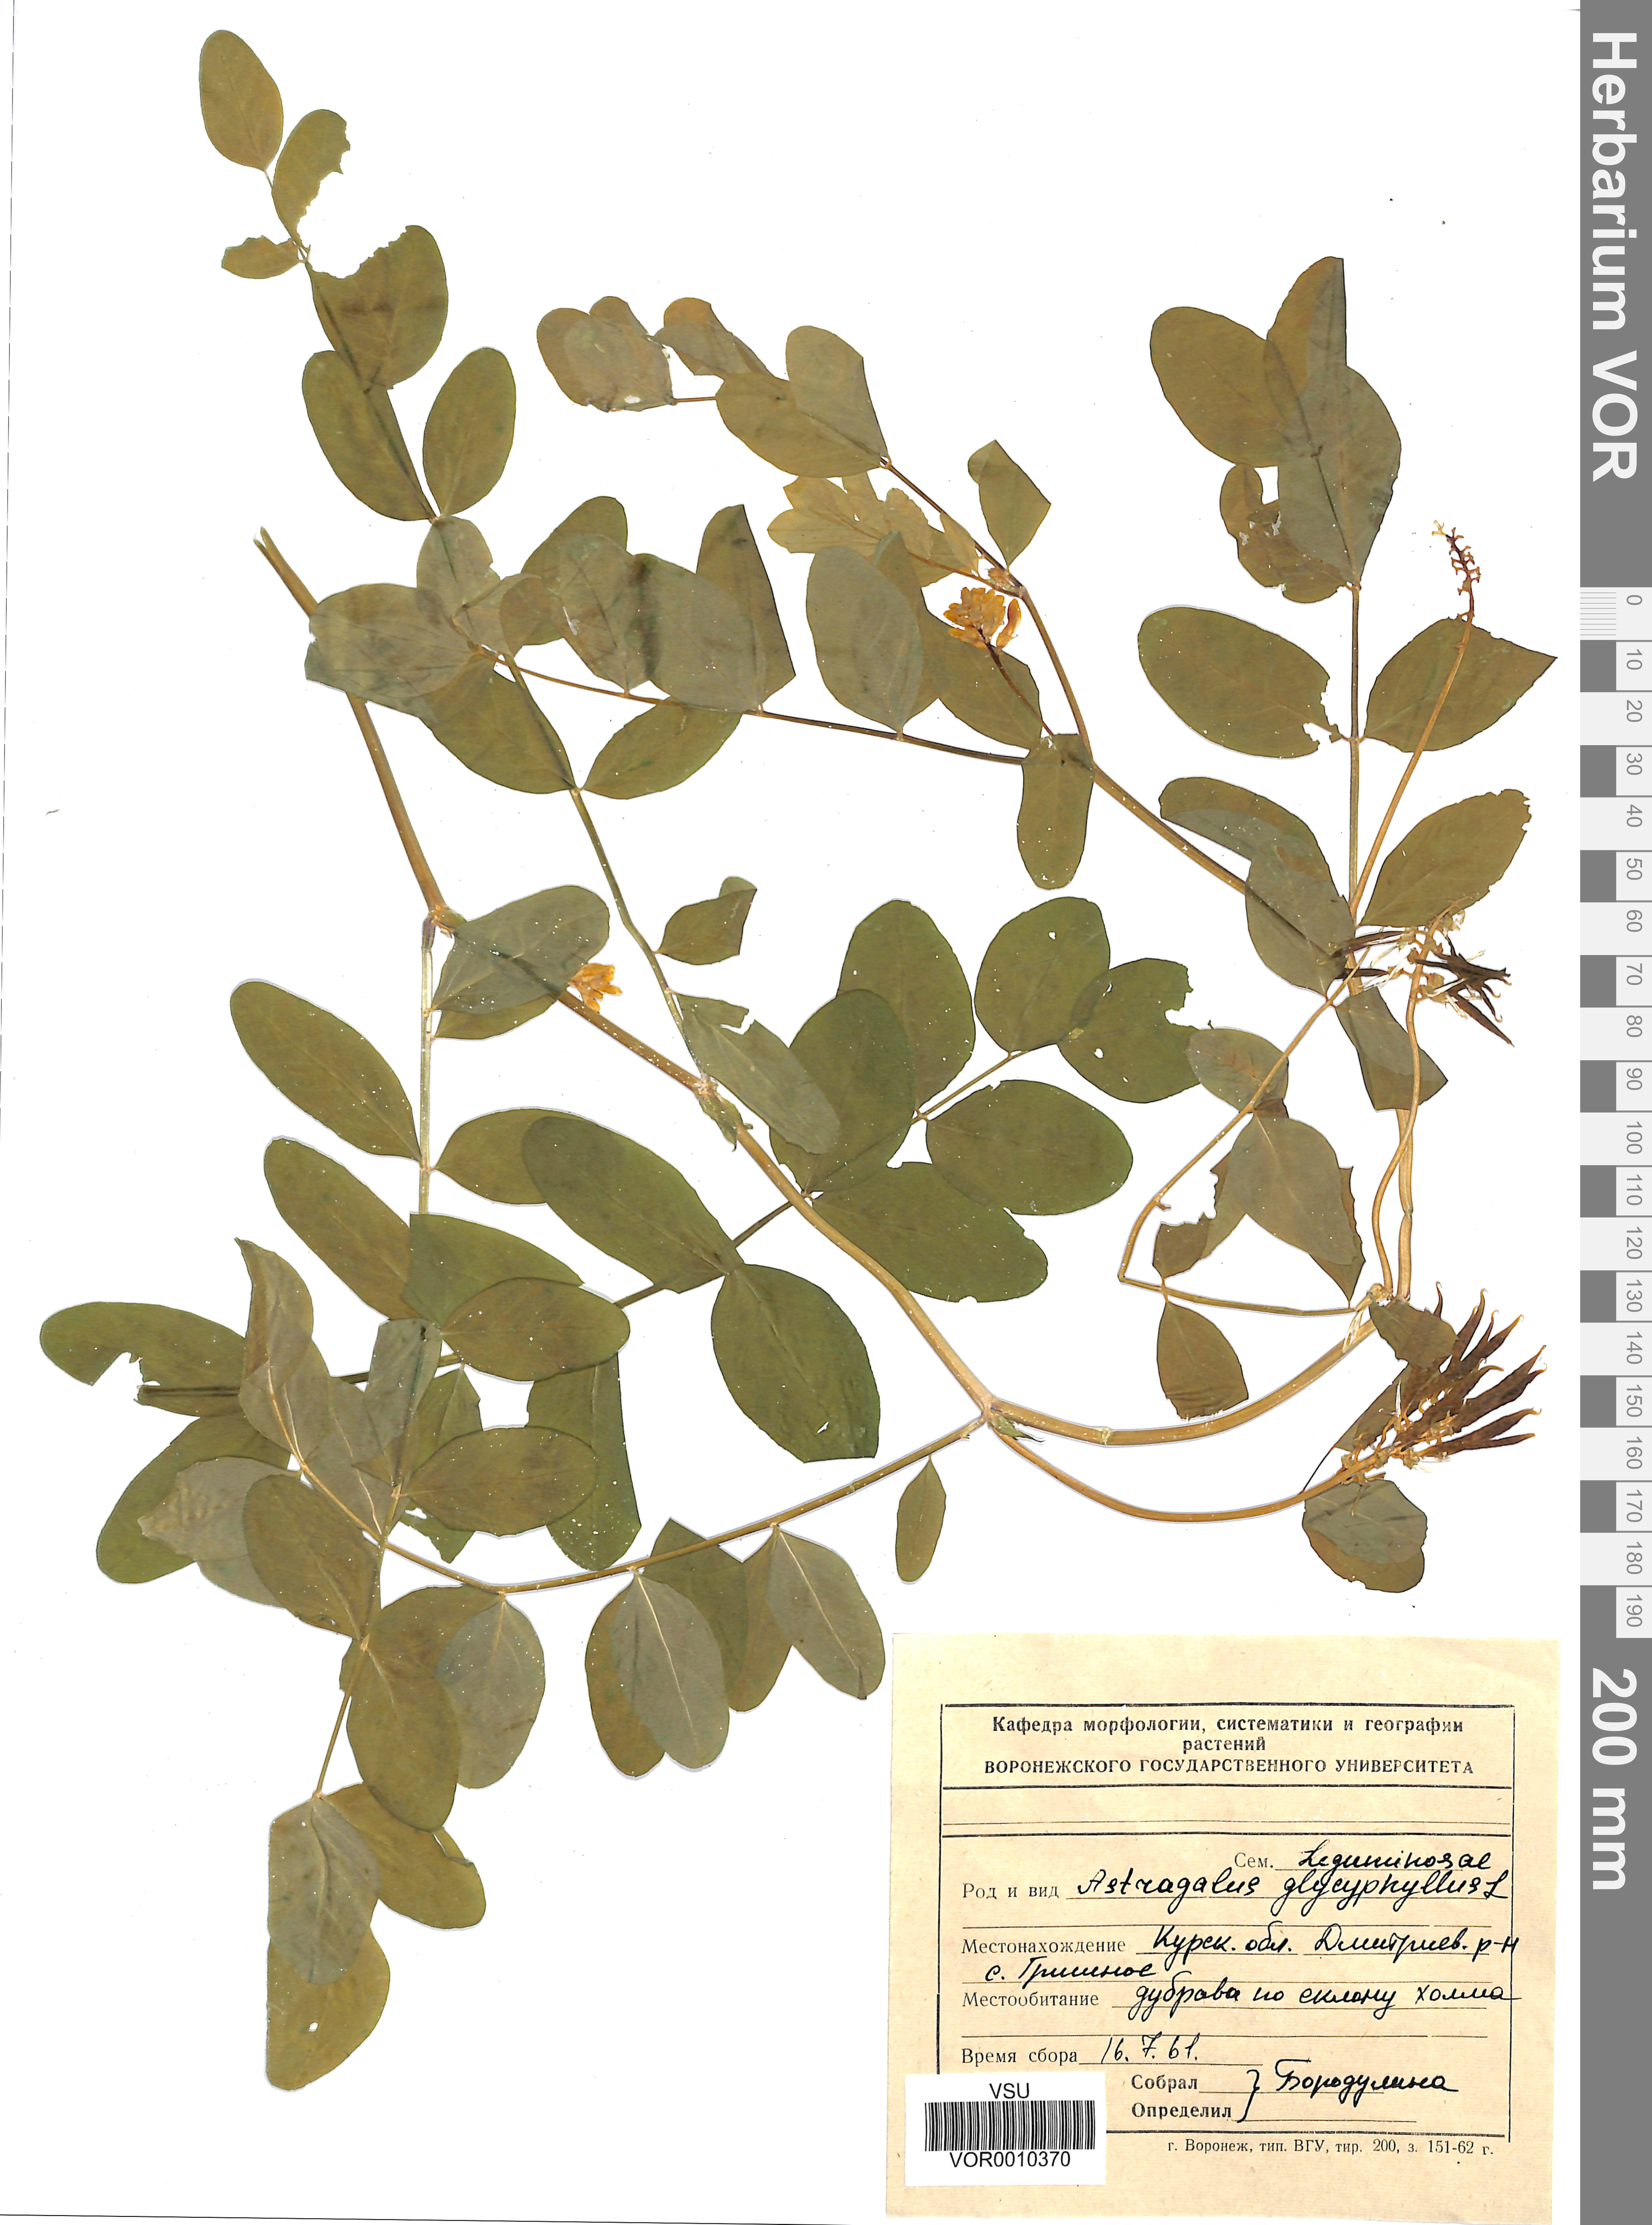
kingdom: Plantae
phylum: Tracheophyta
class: Magnoliopsida
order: Fabales
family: Fabaceae
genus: Astragalus
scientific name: Astragalus glycyphyllos
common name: Wild liquorice
